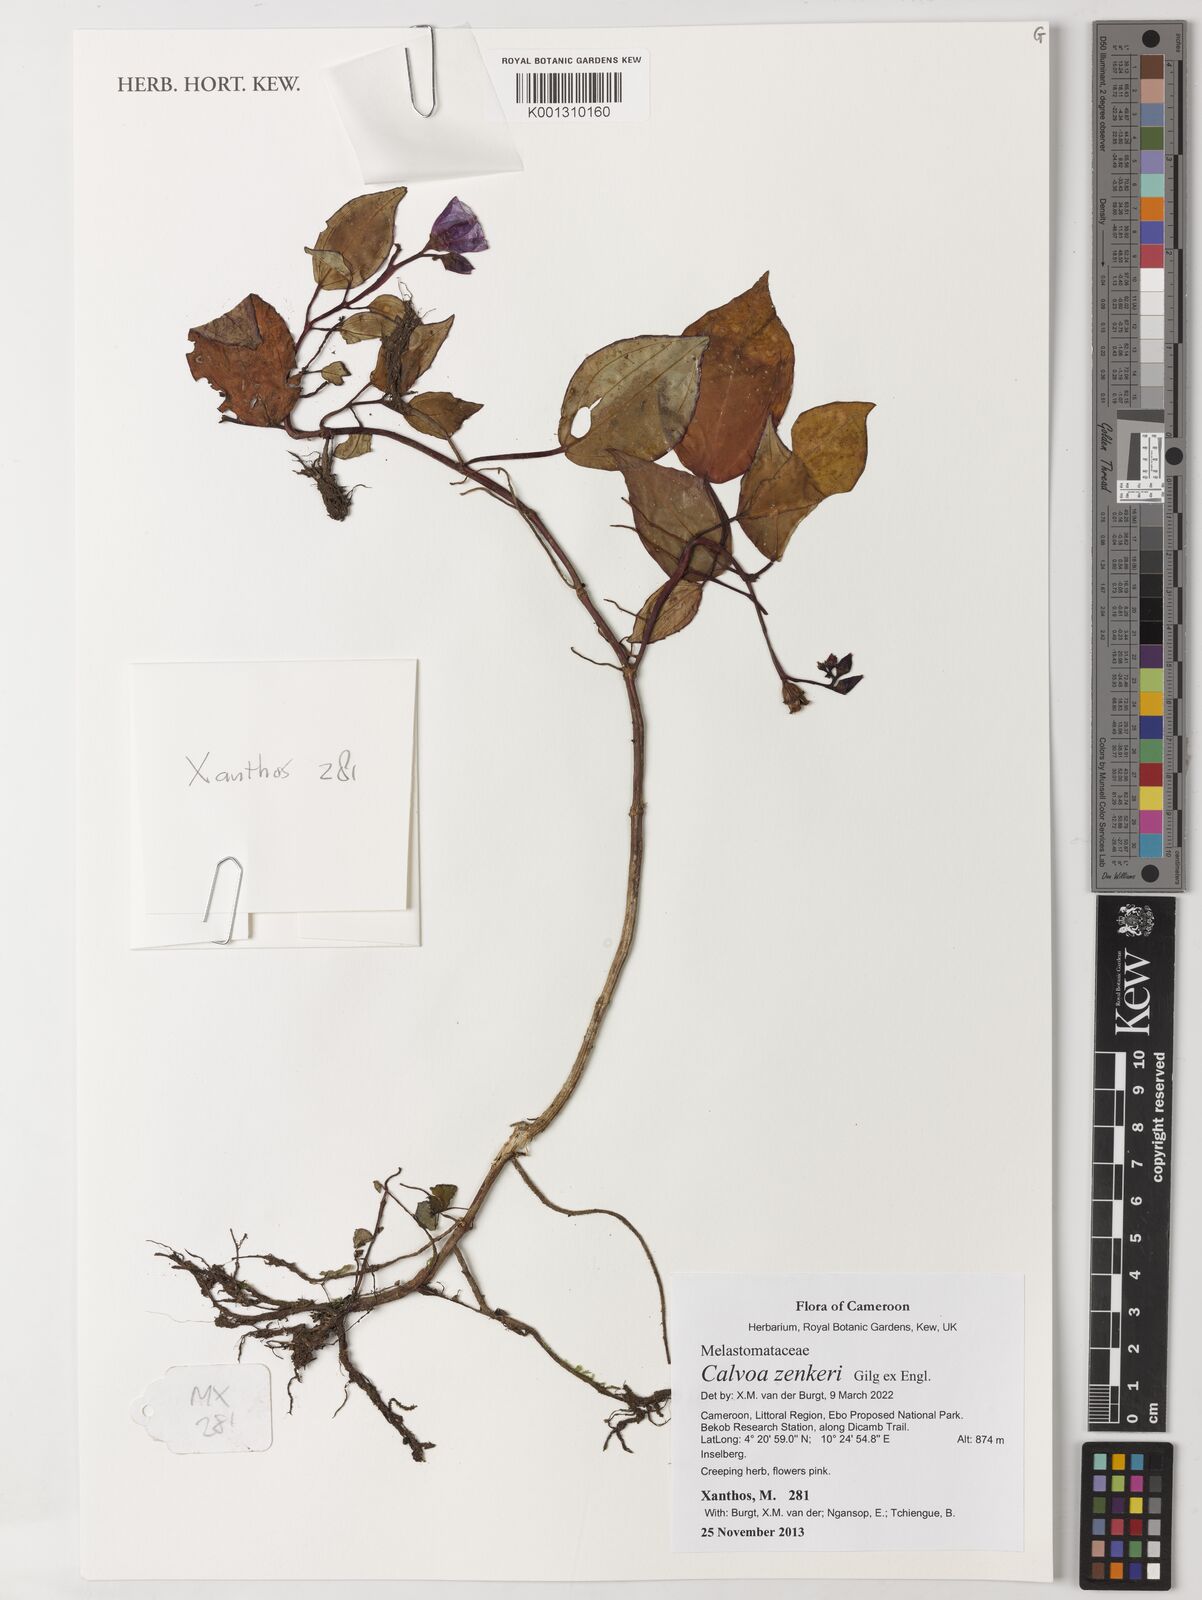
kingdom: Plantae
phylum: Tracheophyta
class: Magnoliopsida
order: Myrtales
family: Melastomataceae
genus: Calvoa
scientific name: Calvoa zenkeri
